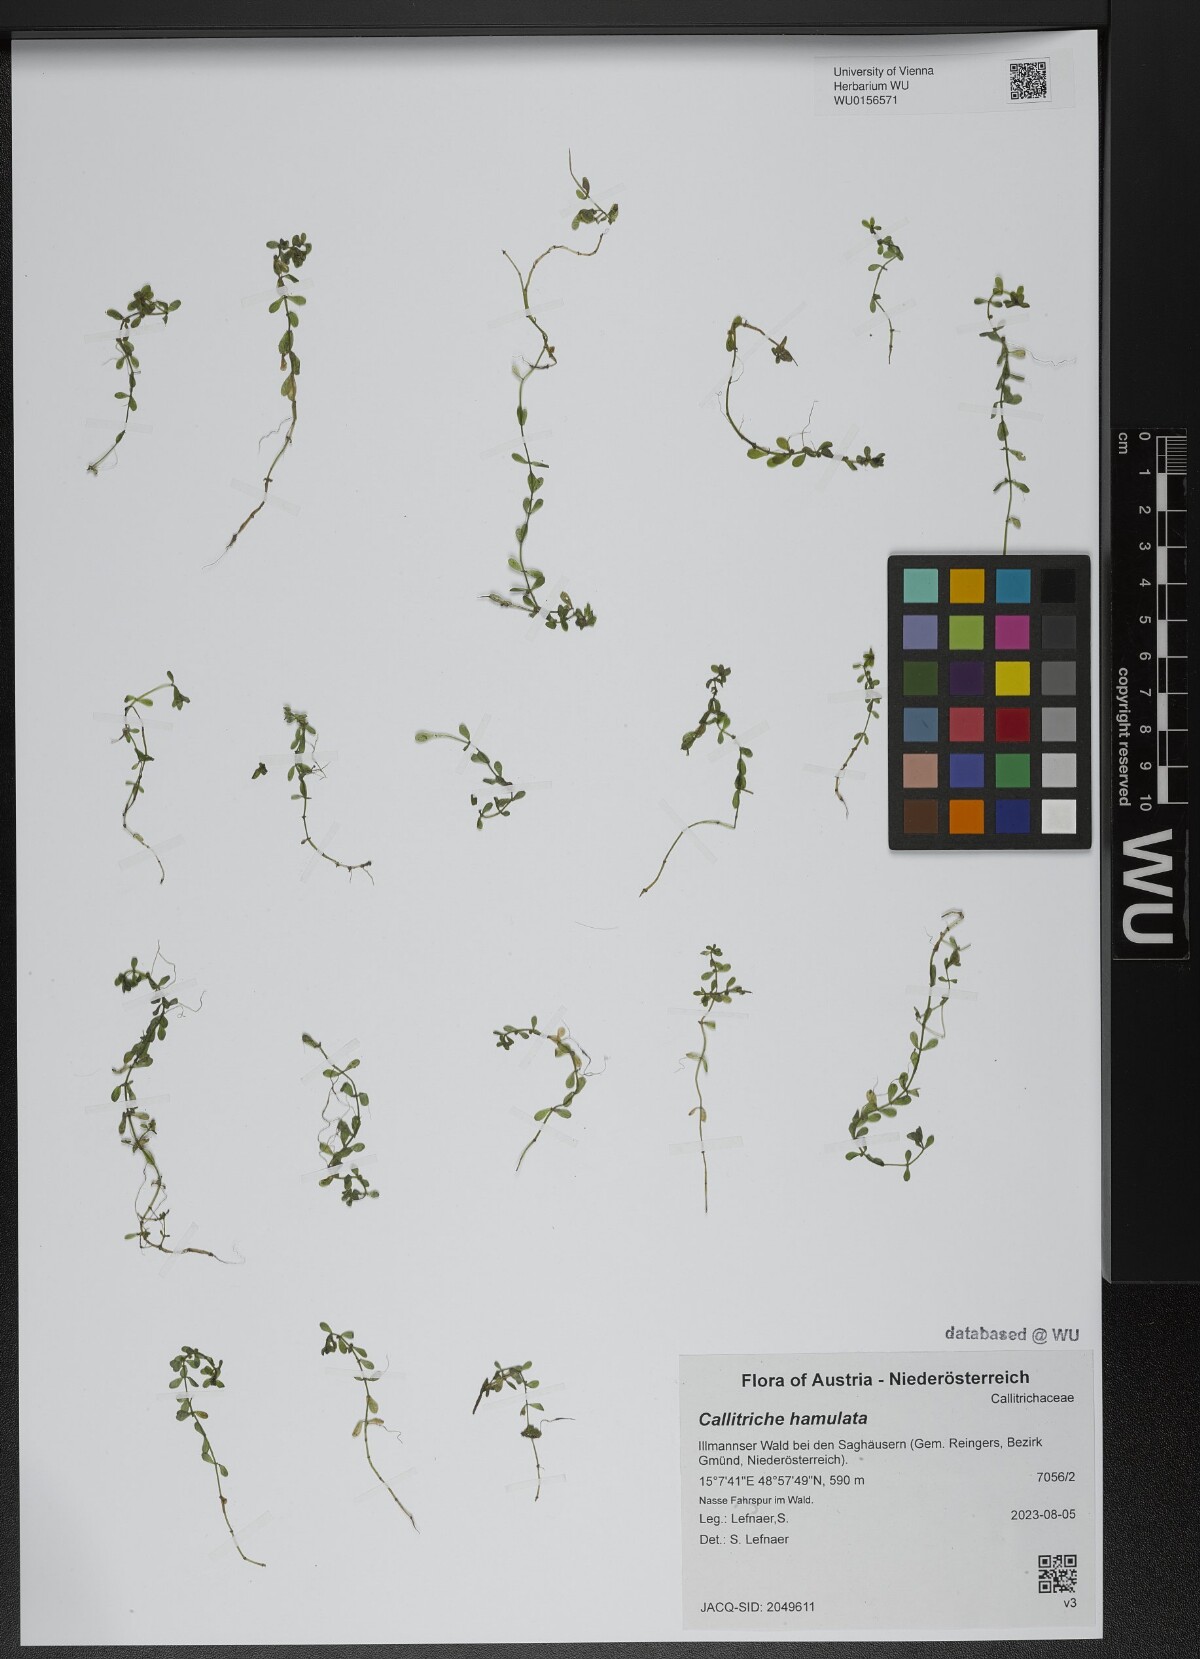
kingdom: Plantae
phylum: Tracheophyta
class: Magnoliopsida
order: Lamiales
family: Plantaginaceae
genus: Callitriche
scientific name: Callitriche hamulata
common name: Intermediate water-starwort
